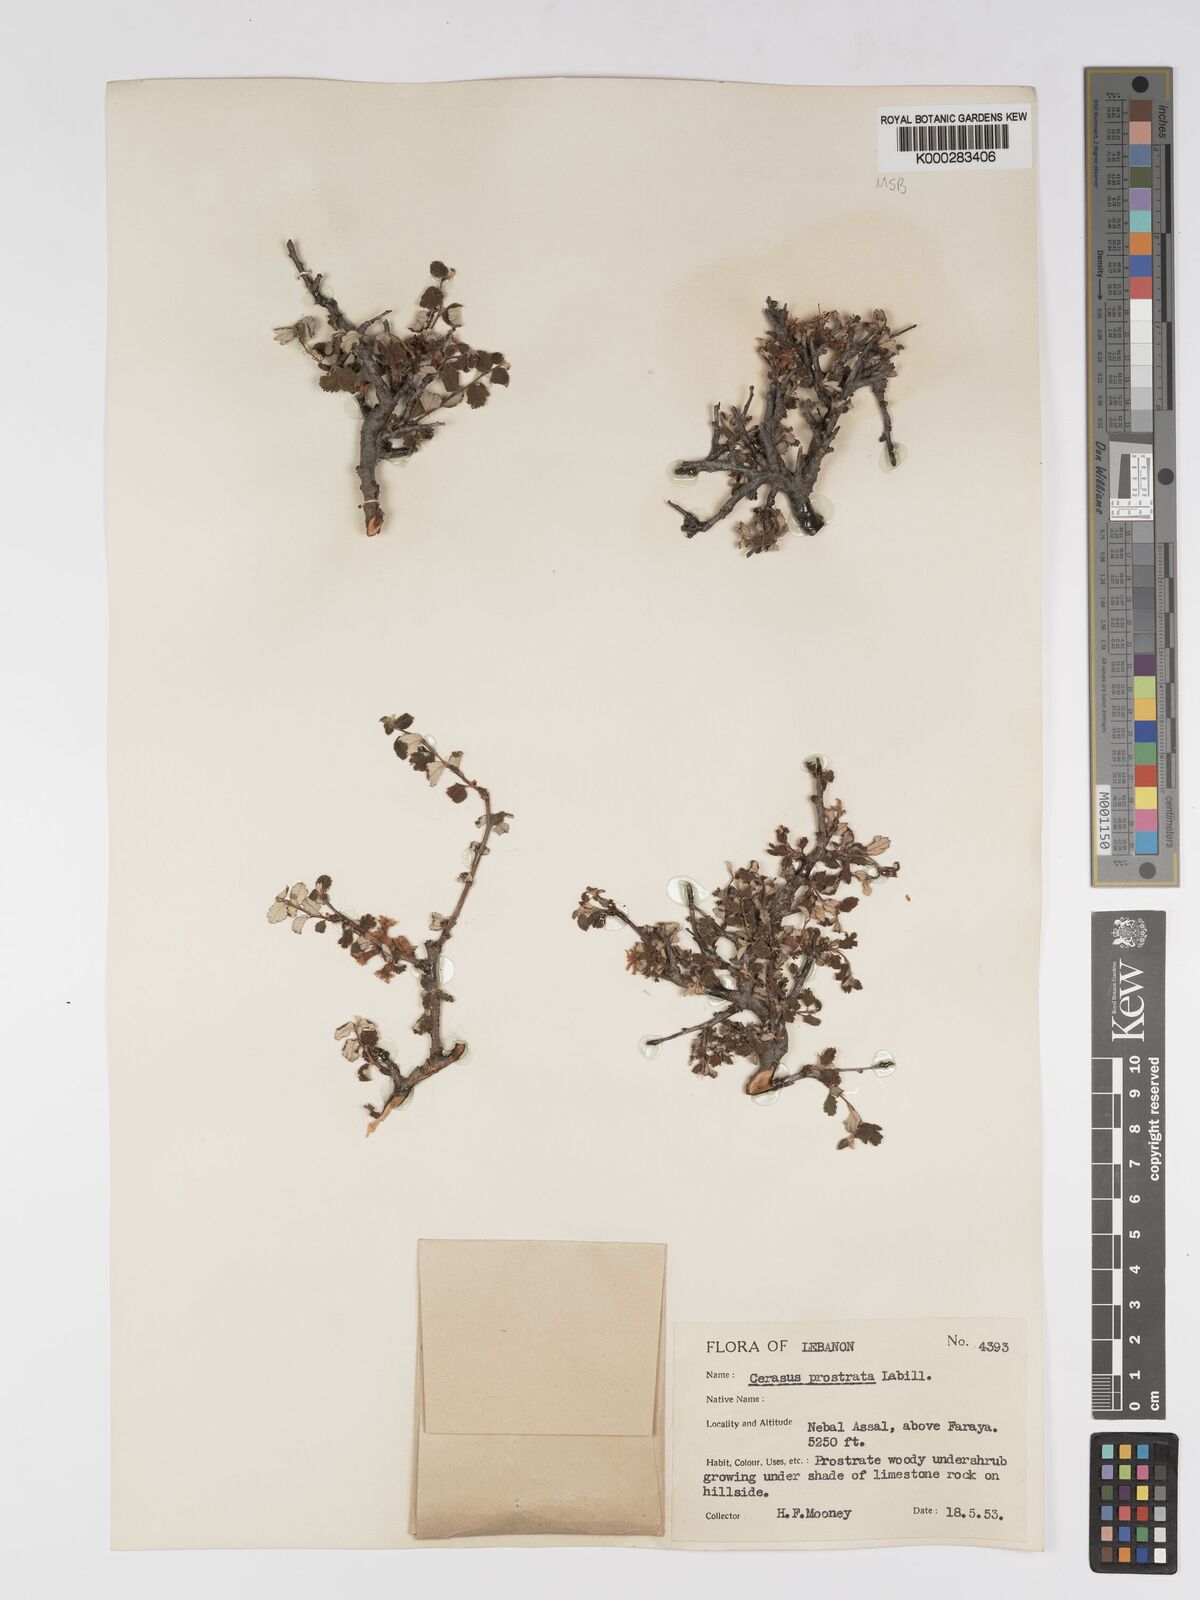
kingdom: Plantae
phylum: Tracheophyta
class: Magnoliopsida
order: Rosales
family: Rosaceae
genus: Prunus
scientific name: Prunus prostrata
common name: Mountain cherry
